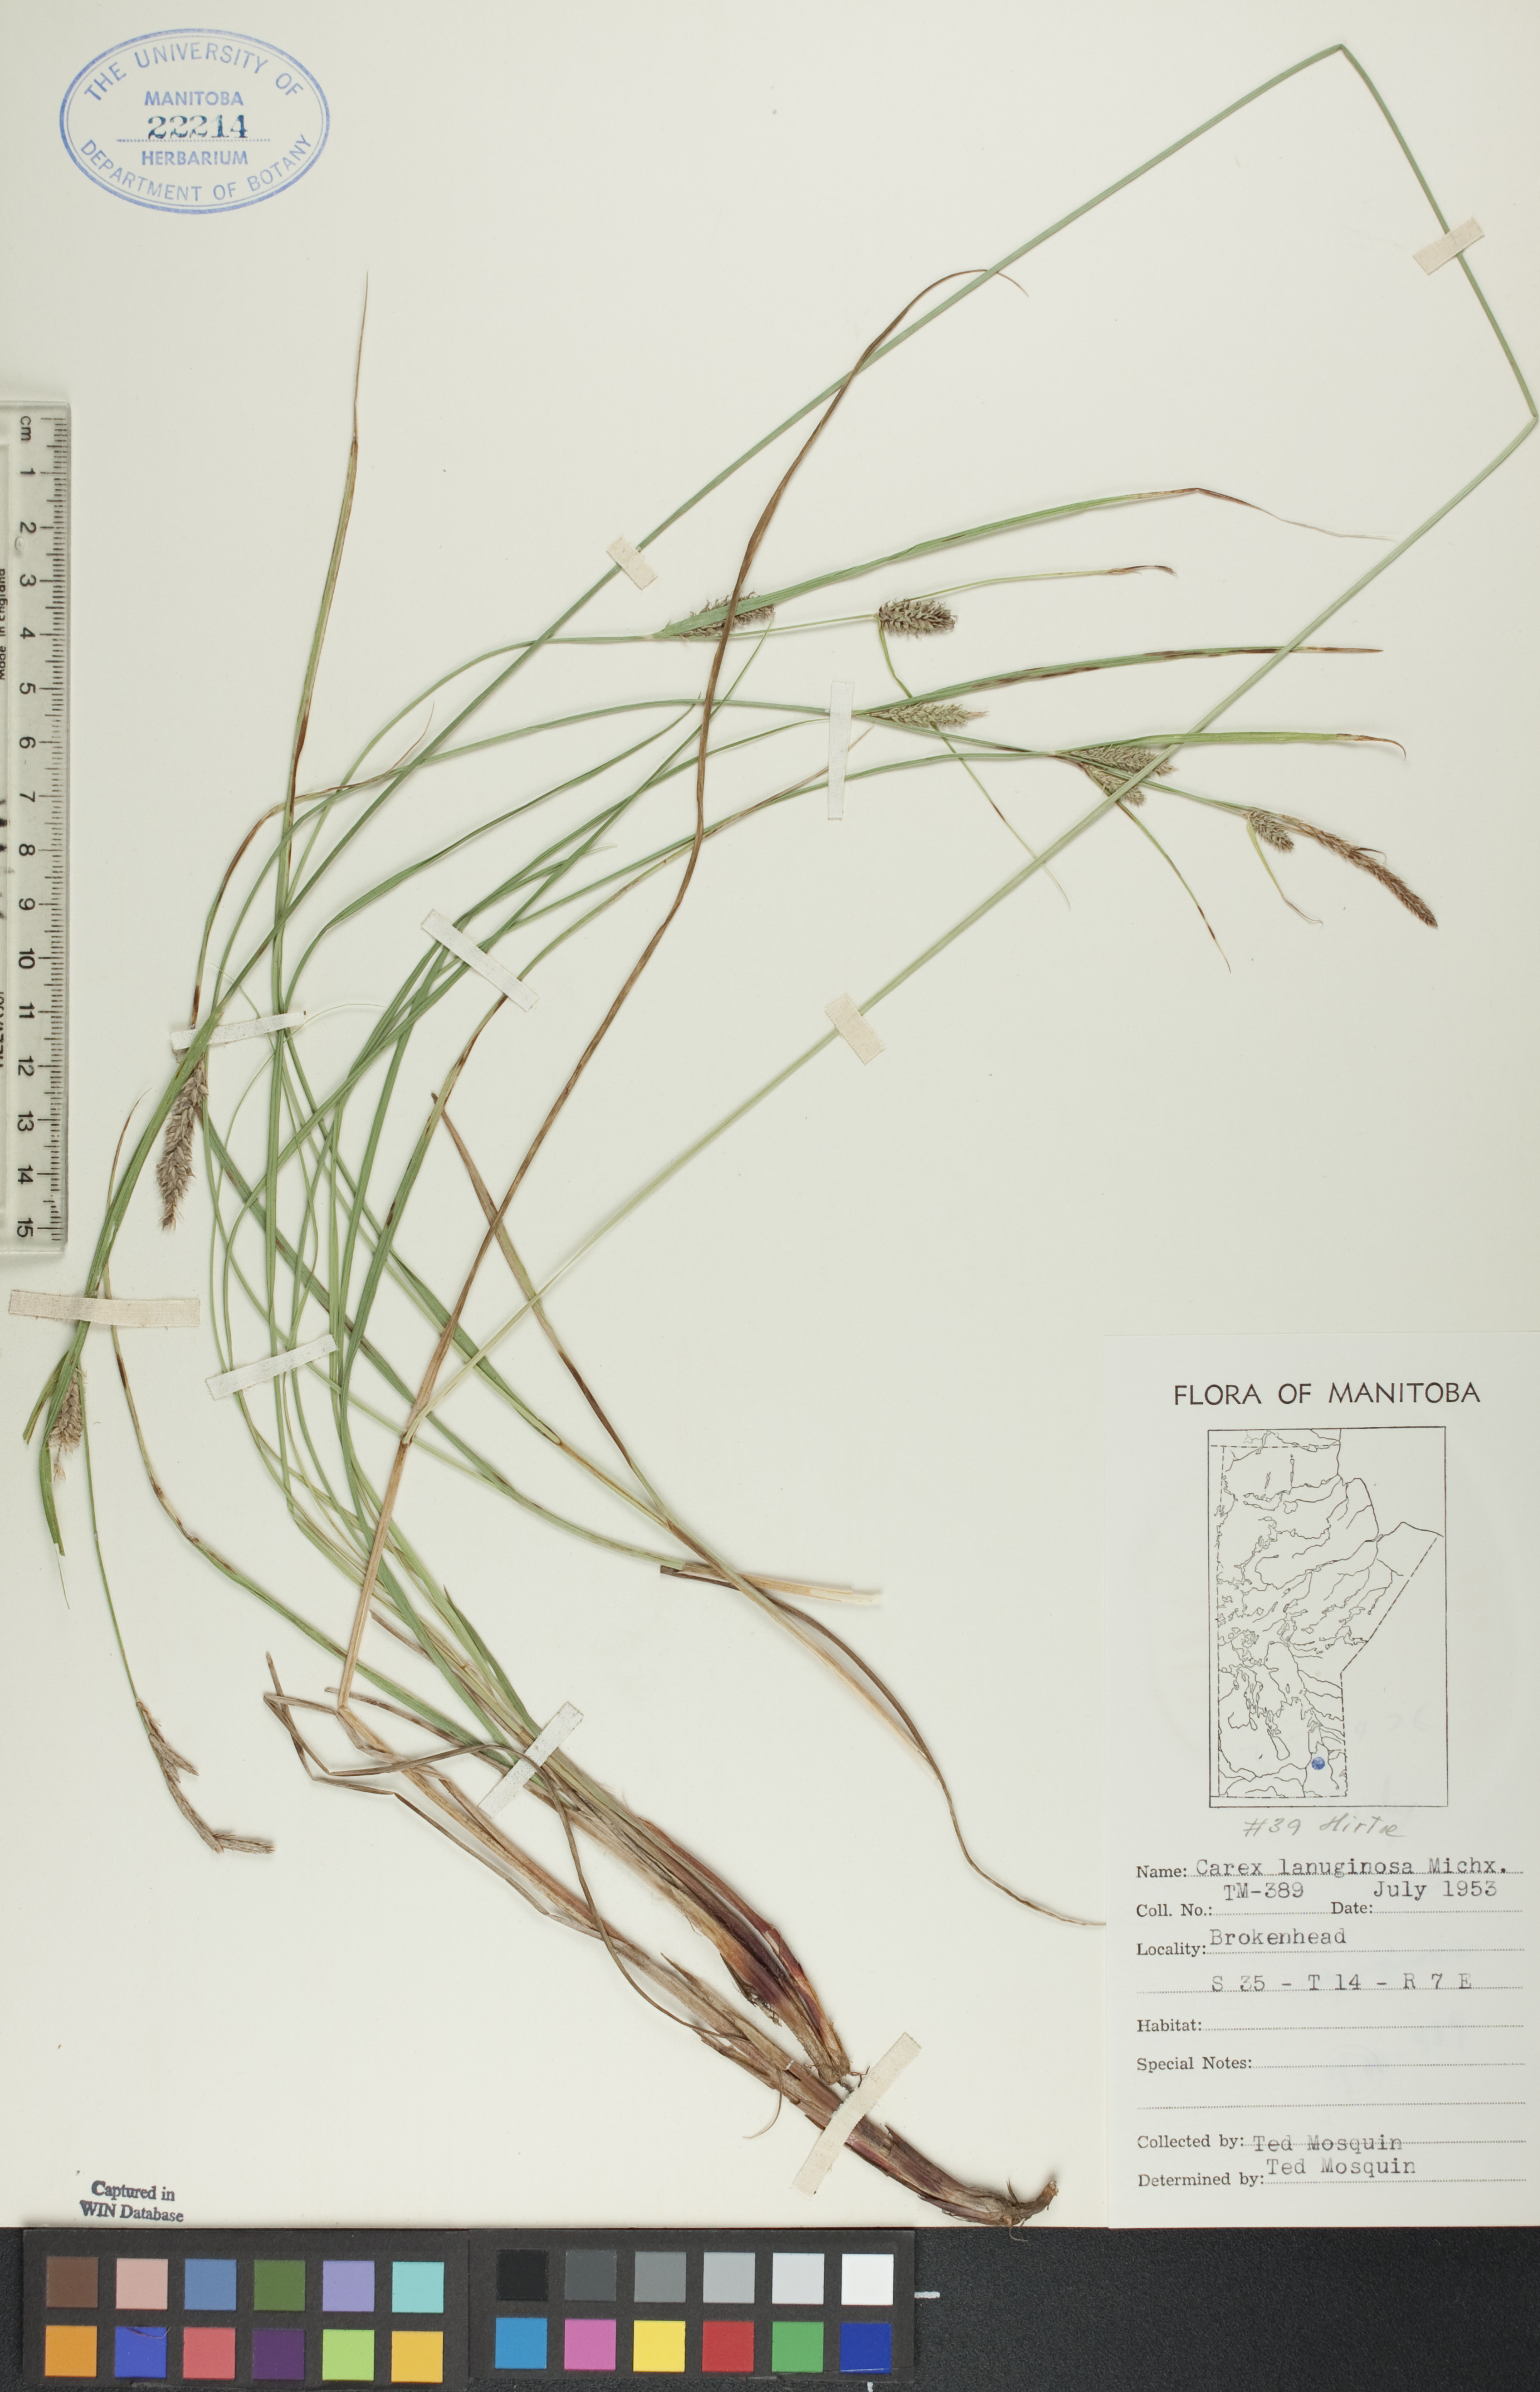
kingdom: Plantae
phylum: Tracheophyta
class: Liliopsida
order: Poales
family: Cyperaceae
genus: Carex
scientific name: Carex lasiocarpa
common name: Slender sedge
